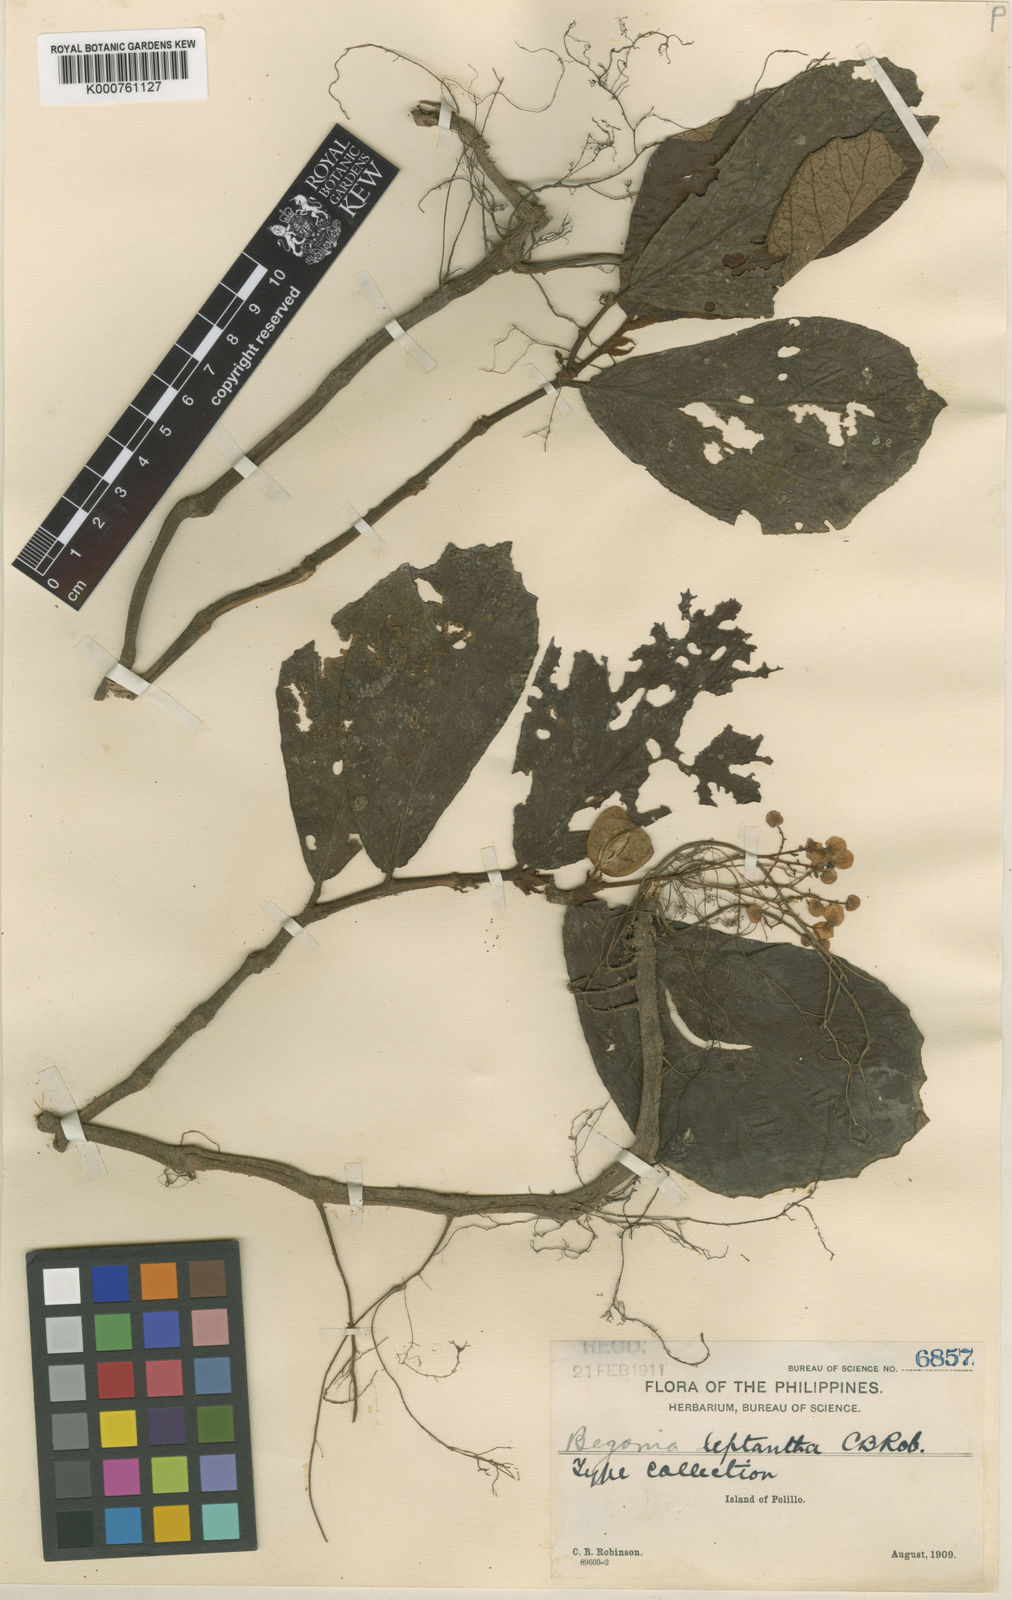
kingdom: Plantae
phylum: Tracheophyta
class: Magnoliopsida
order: Cucurbitales
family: Begoniaceae
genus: Begonia
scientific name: Begonia leptantha
